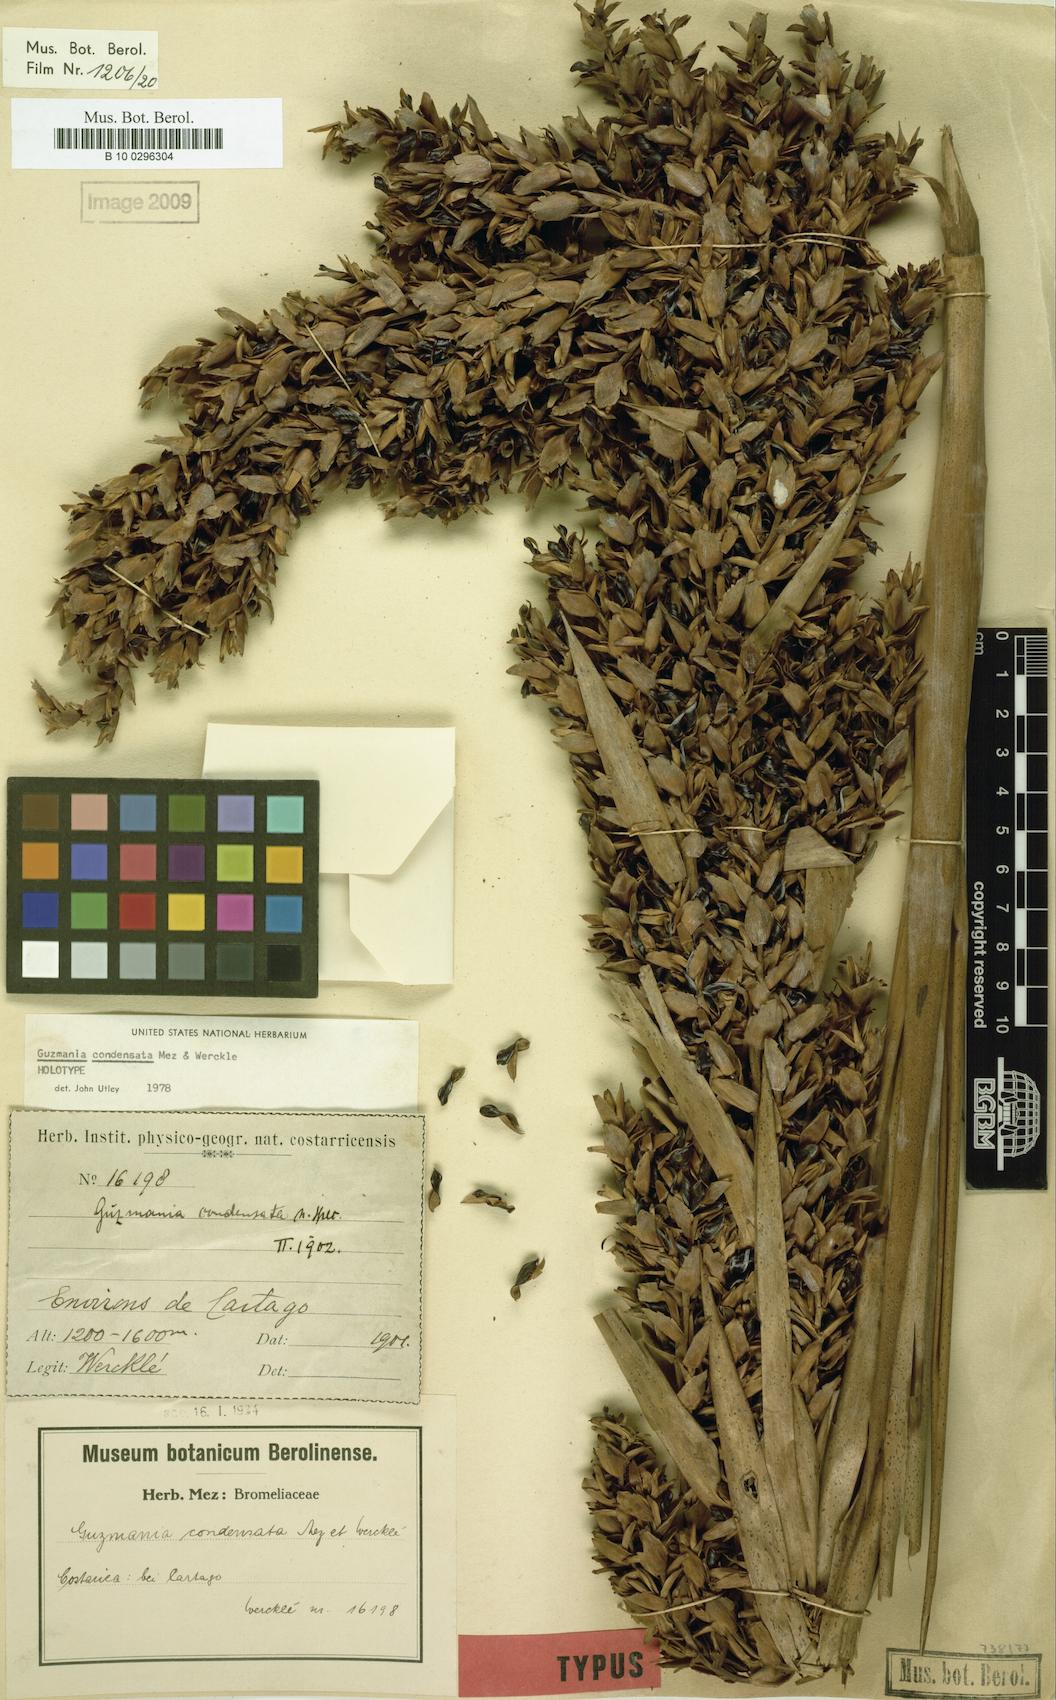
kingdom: Plantae
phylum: Tracheophyta
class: Liliopsida
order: Poales
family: Bromeliaceae
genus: Guzmania
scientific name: Guzmania condensata
